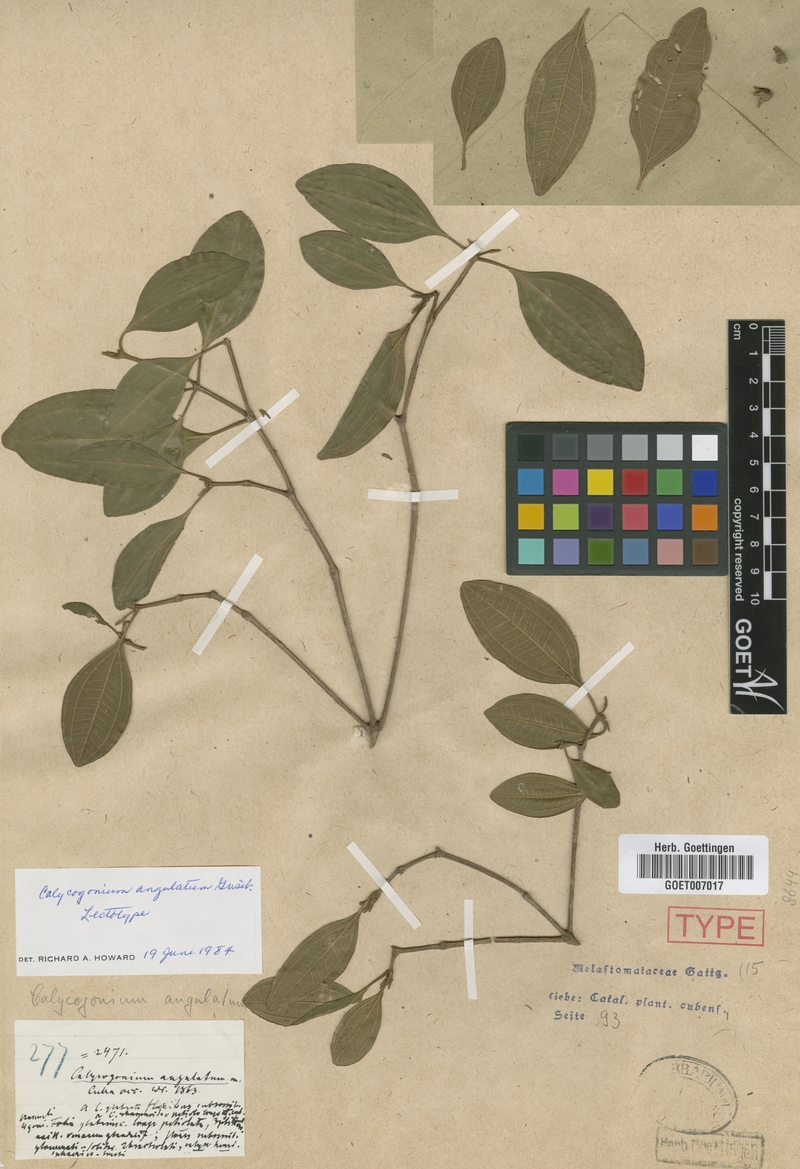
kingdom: Plantae
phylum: Tracheophyta
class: Magnoliopsida
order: Myrtales
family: Melastomataceae
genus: Miconia
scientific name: Miconia angulata
